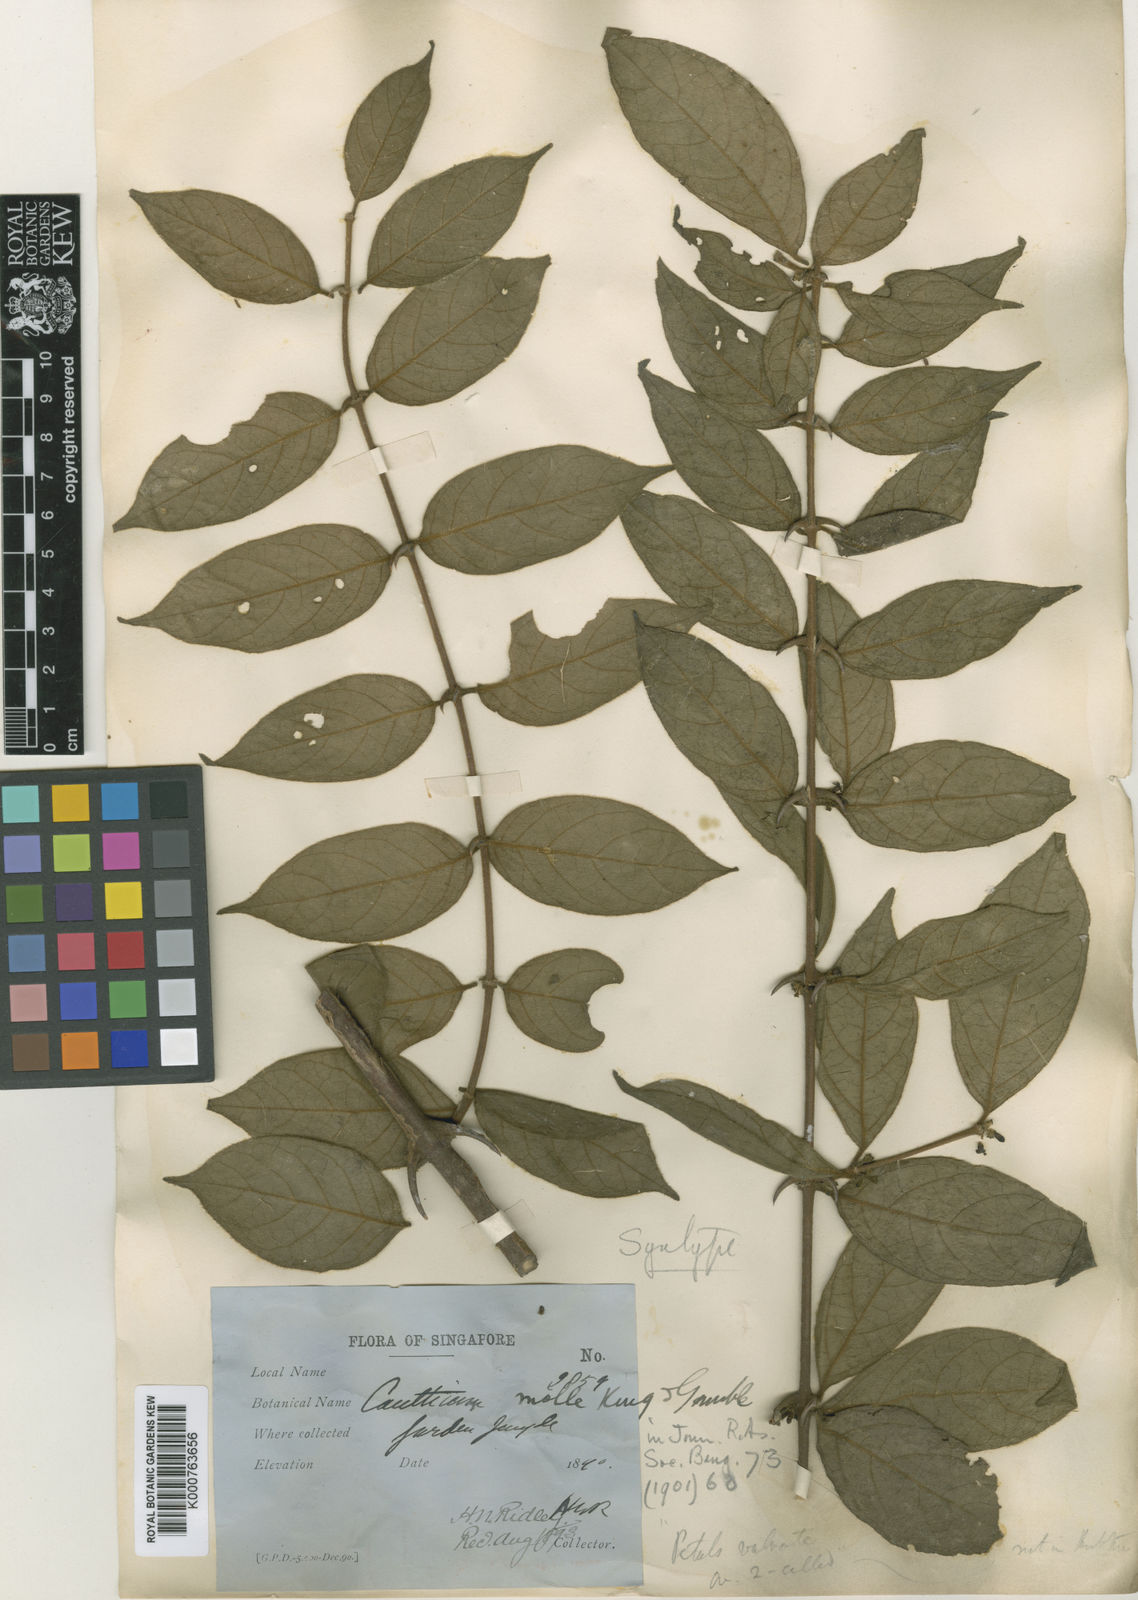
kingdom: Plantae
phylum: Tracheophyta
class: Magnoliopsida
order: Gentianales
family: Rubiaceae
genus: Canthium
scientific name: Canthium molle
